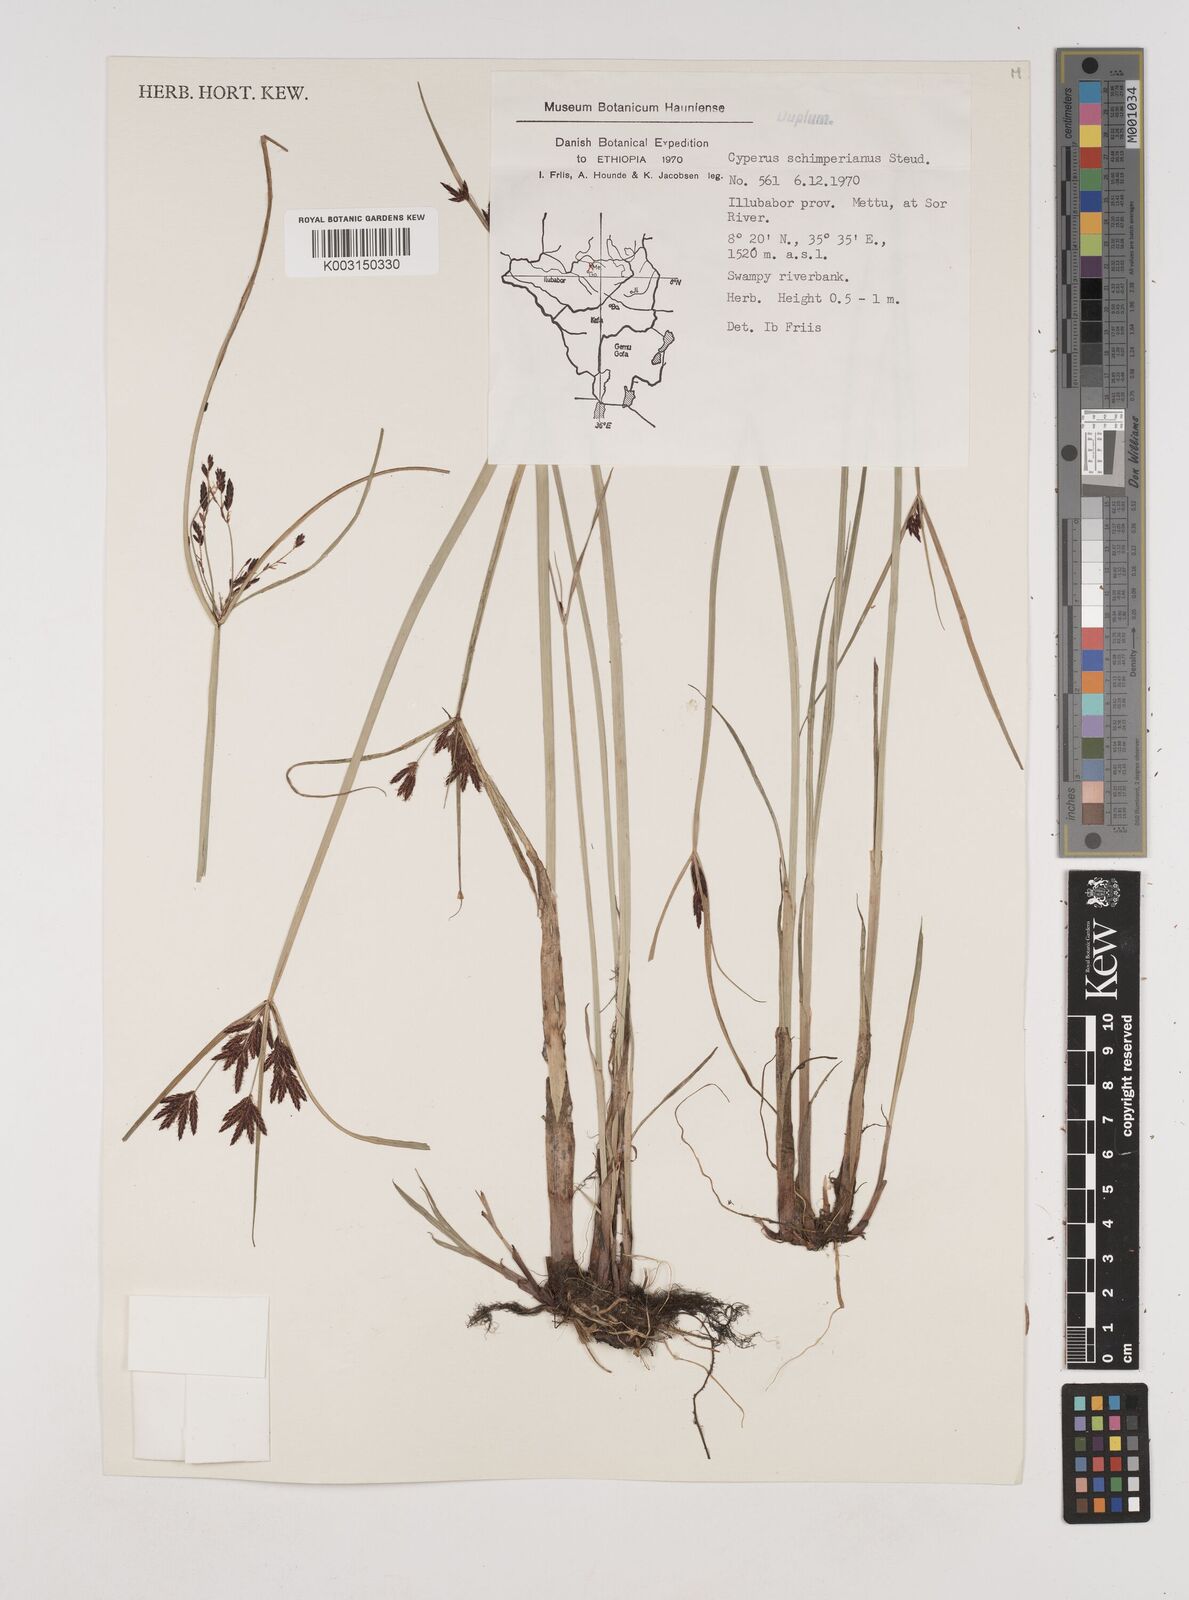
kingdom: Plantae
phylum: Tracheophyta
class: Liliopsida
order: Poales
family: Cyperaceae
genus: Cyperus
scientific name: Cyperus schimperianus
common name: Schimper flatsedge
